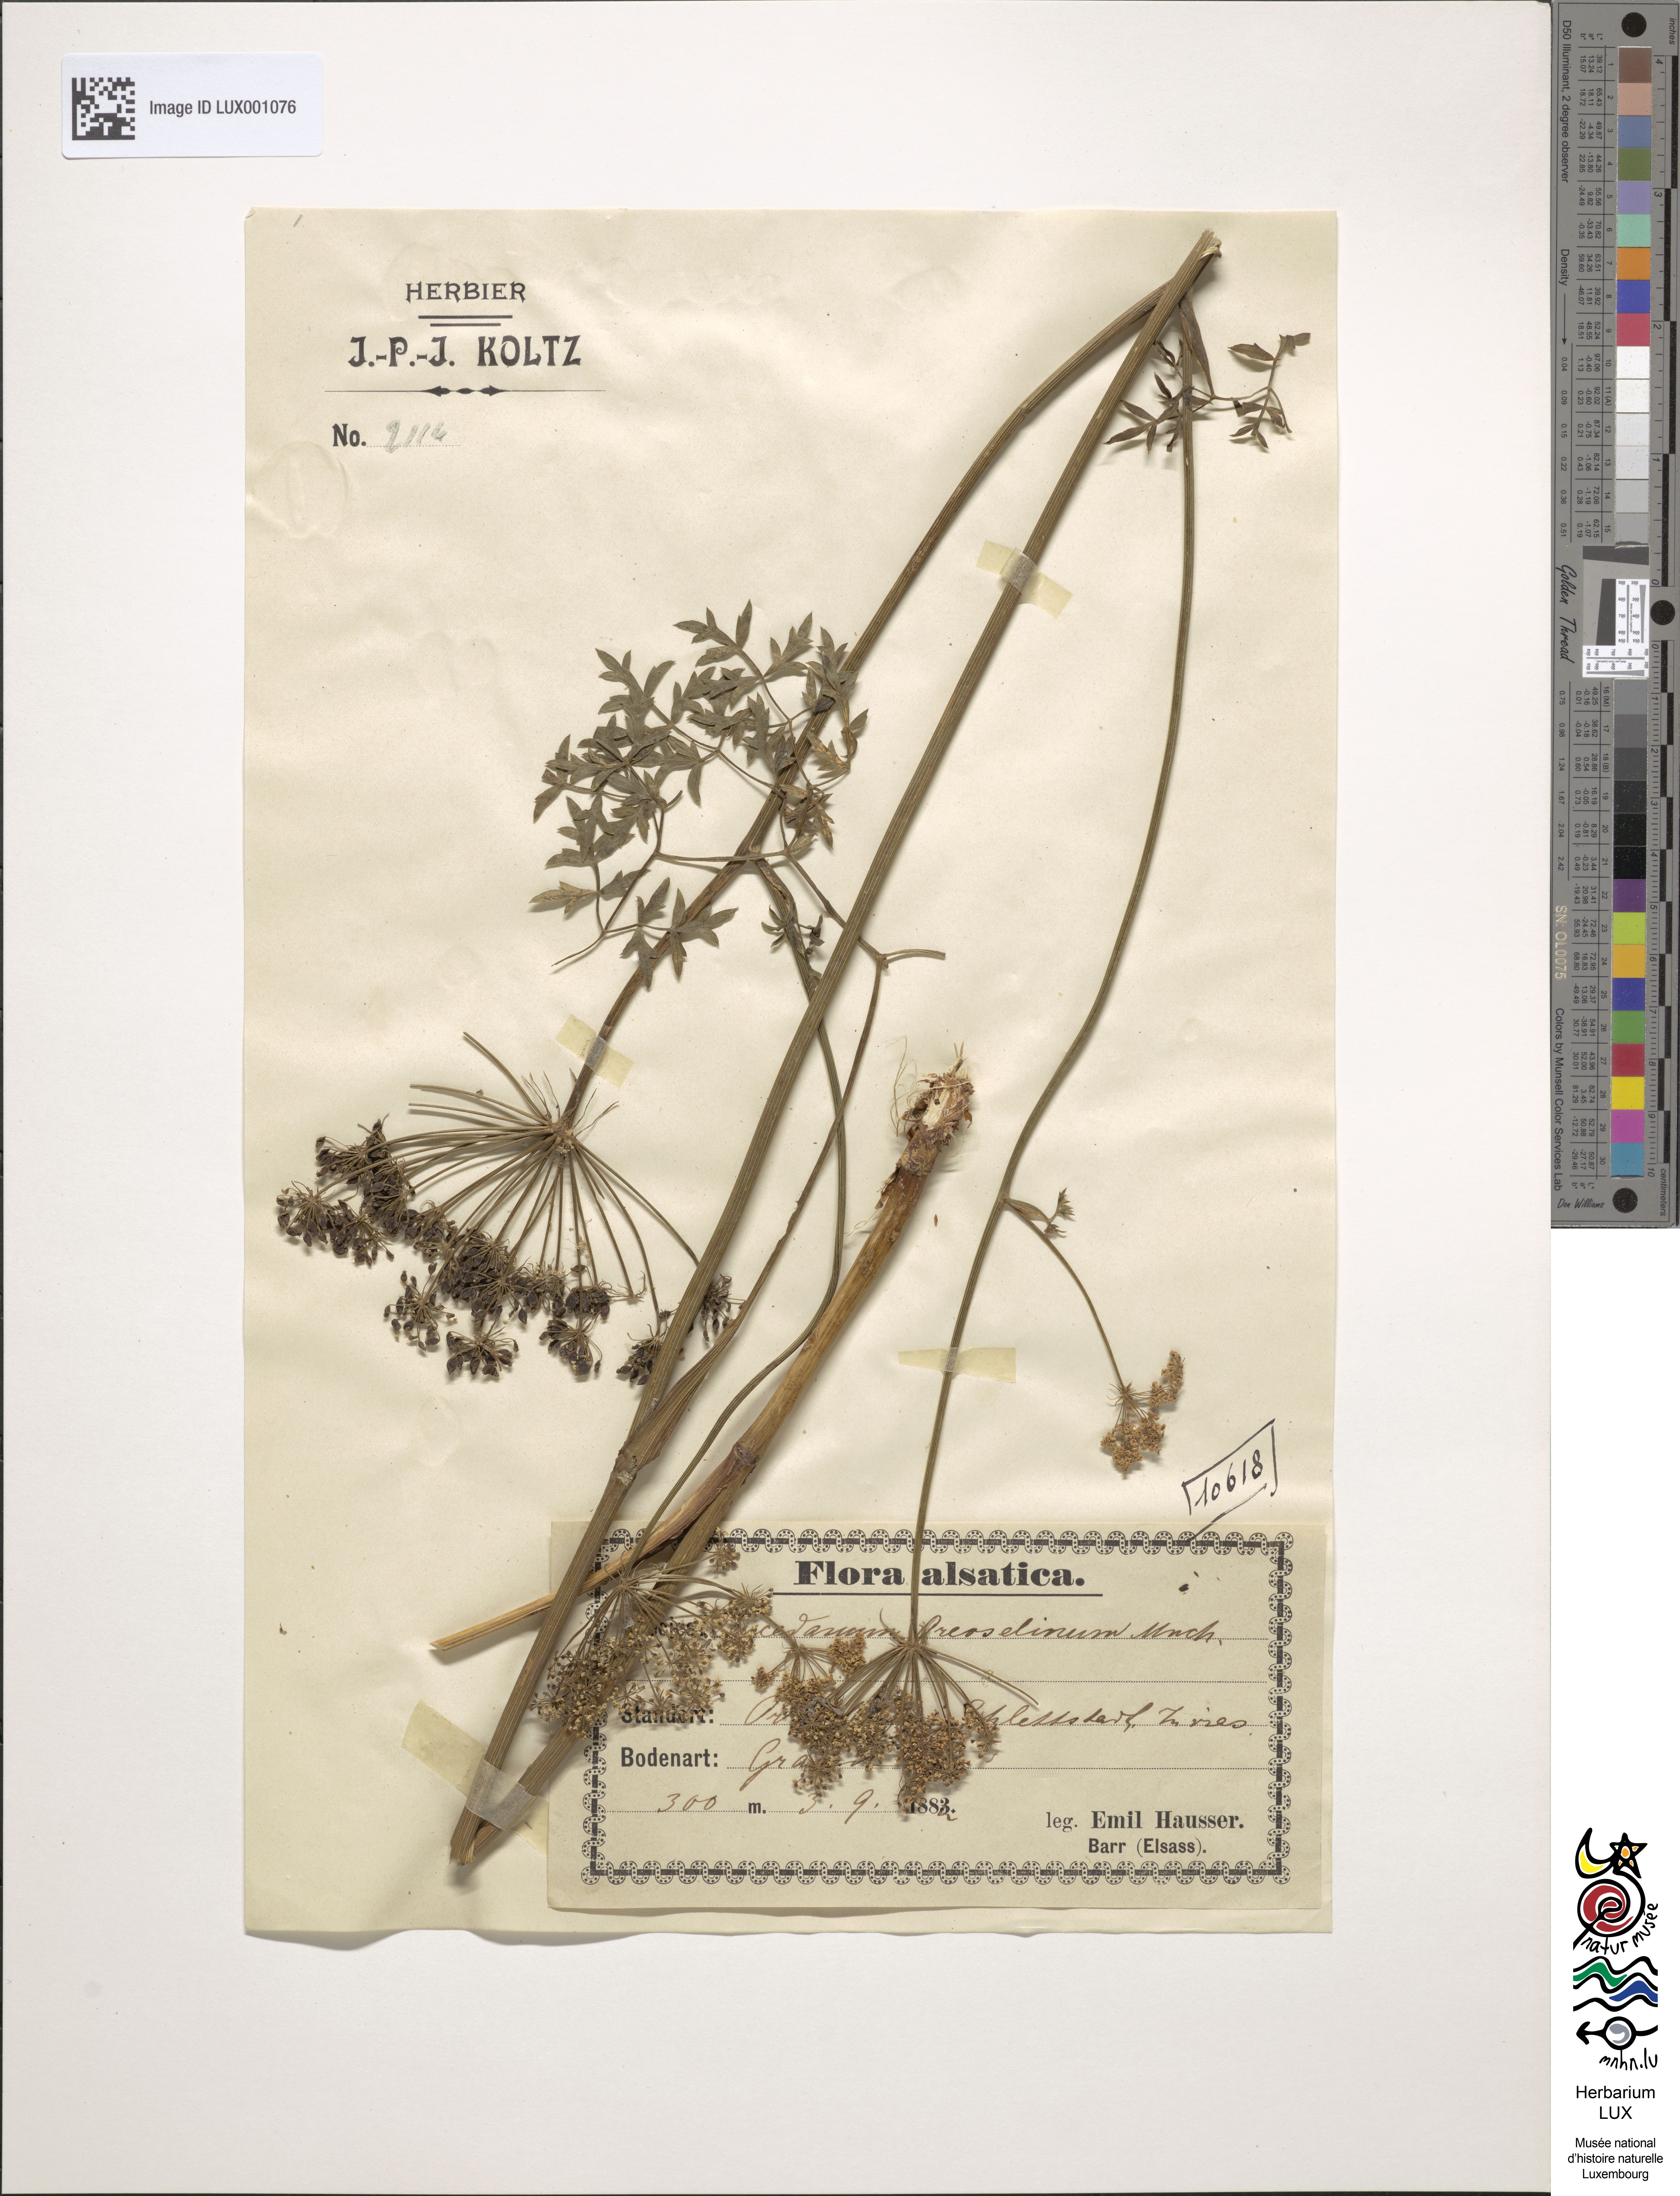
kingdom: Plantae
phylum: Tracheophyta
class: Magnoliopsida
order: Apiales
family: Apiaceae
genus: Oreoselinum
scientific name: Oreoselinum nigrum
